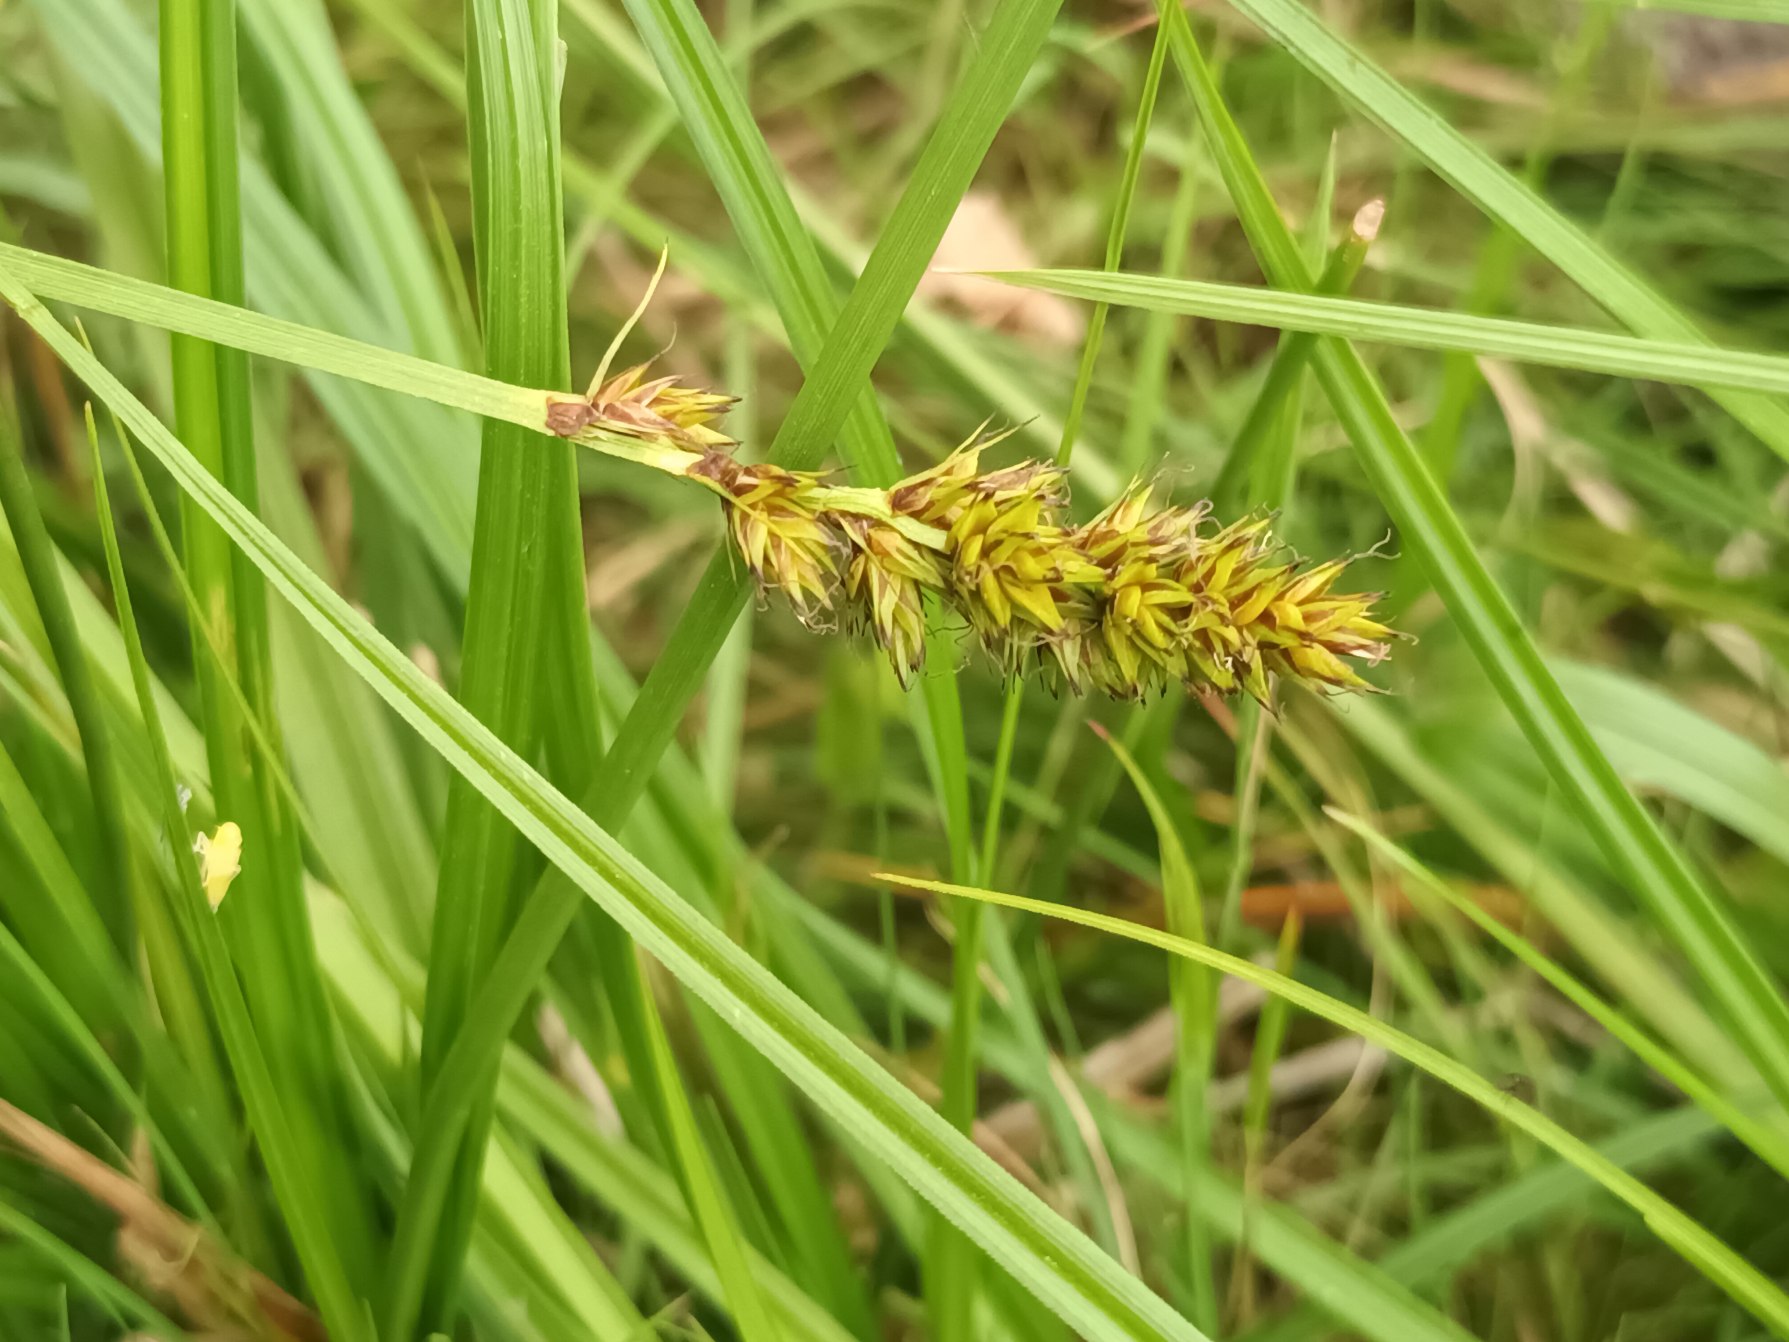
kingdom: Plantae
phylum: Tracheophyta
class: Liliopsida
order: Poales
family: Cyperaceae
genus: Carex
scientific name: Carex vulpina
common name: Ræve-star
